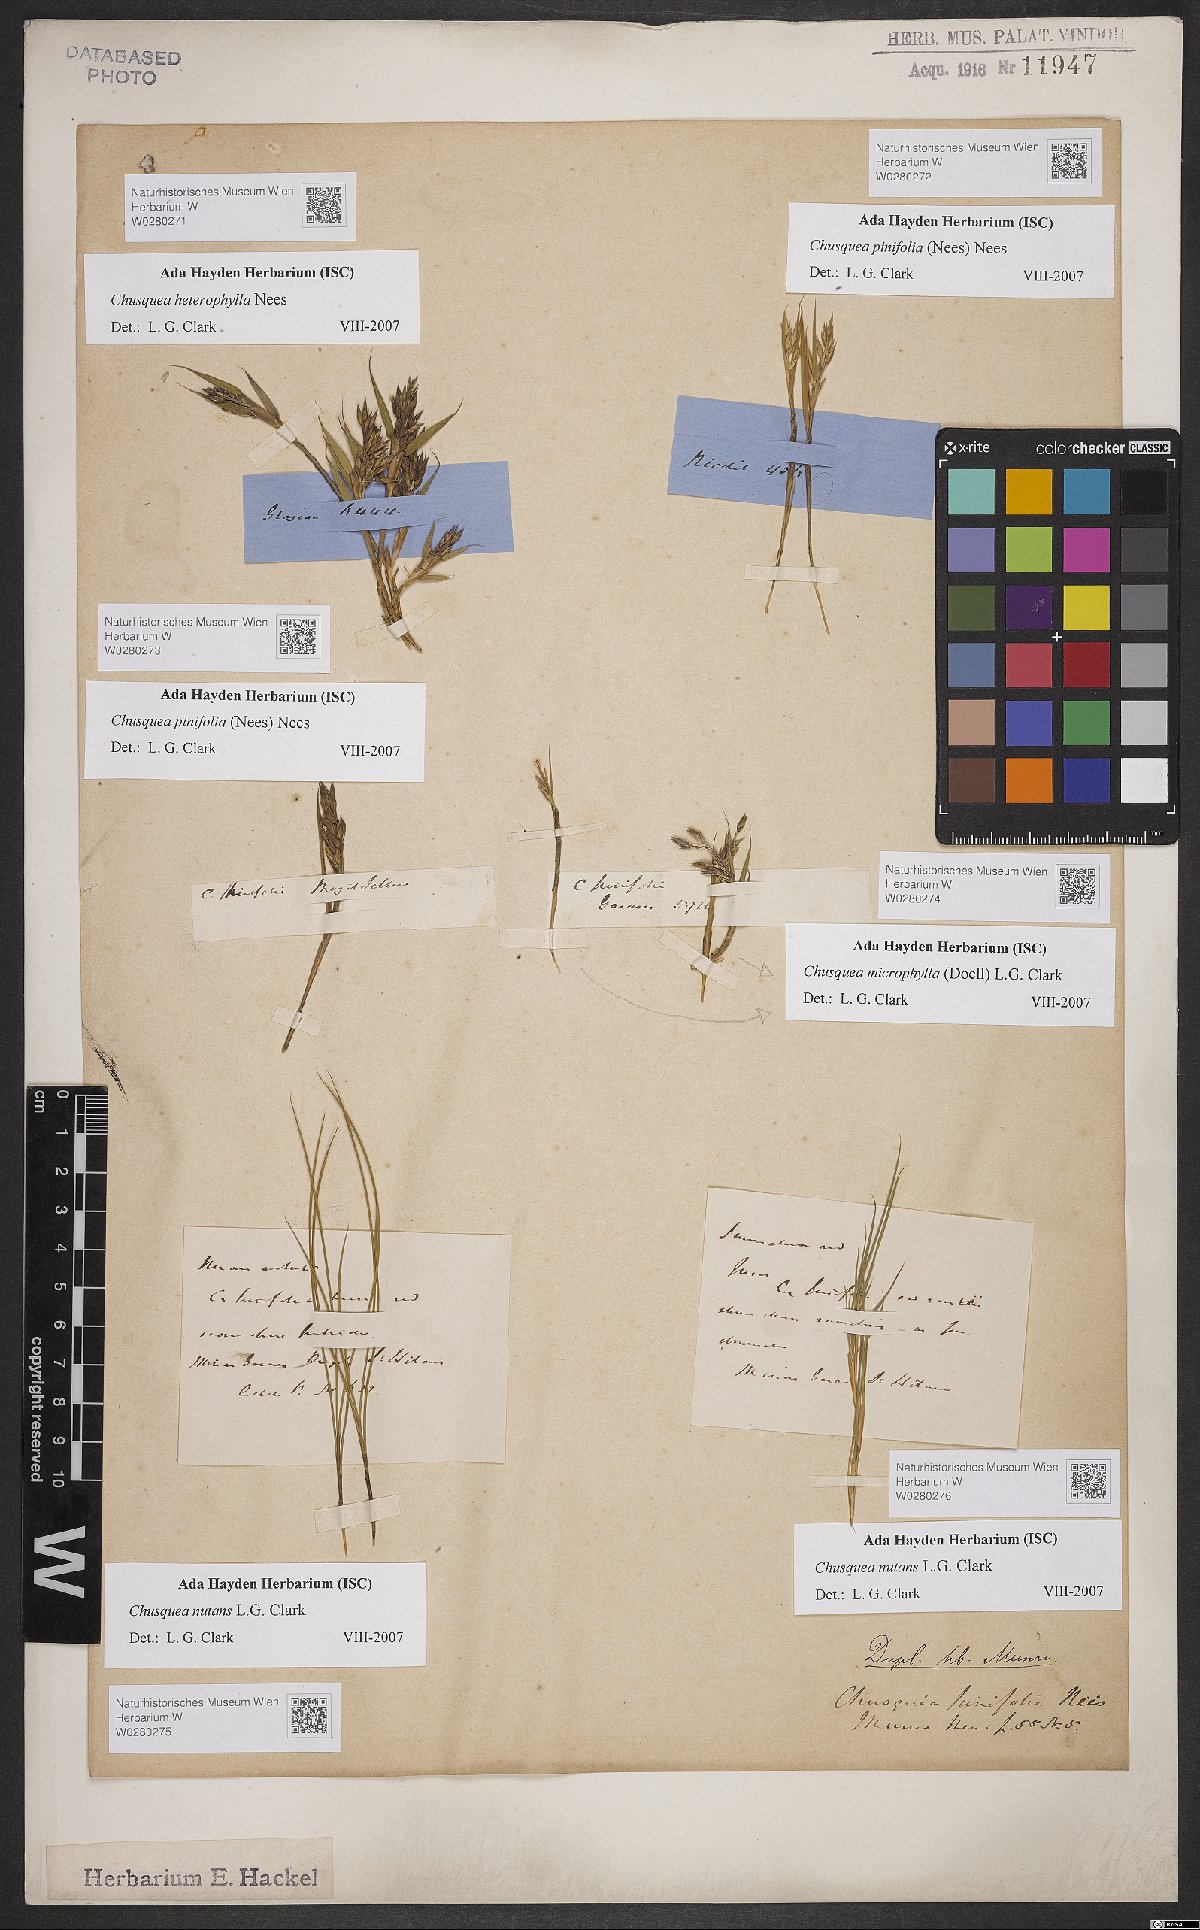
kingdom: Plantae
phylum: Tracheophyta
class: Liliopsida
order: Poales
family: Poaceae
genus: Chusquea
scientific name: Chusquea nutans
